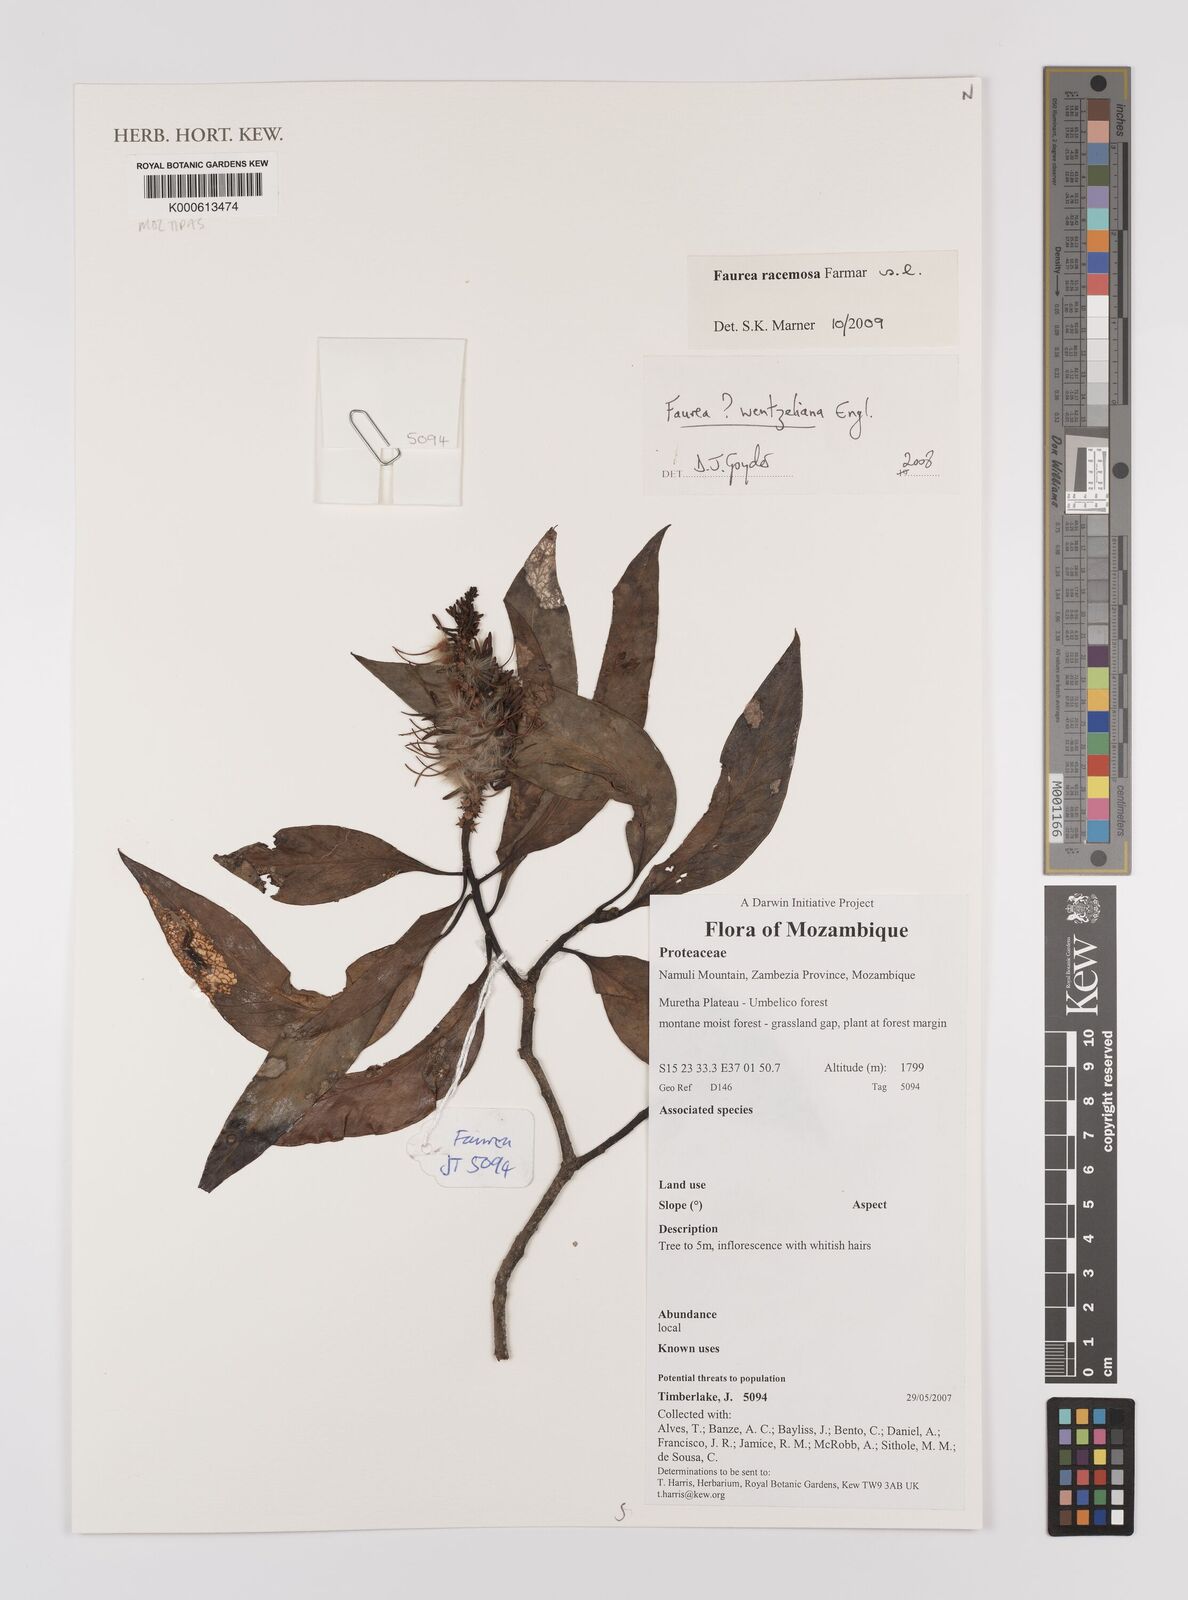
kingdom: Plantae
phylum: Tracheophyta
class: Magnoliopsida
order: Proteales
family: Proteaceae
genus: Faurea
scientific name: Faurea wentzeliana
